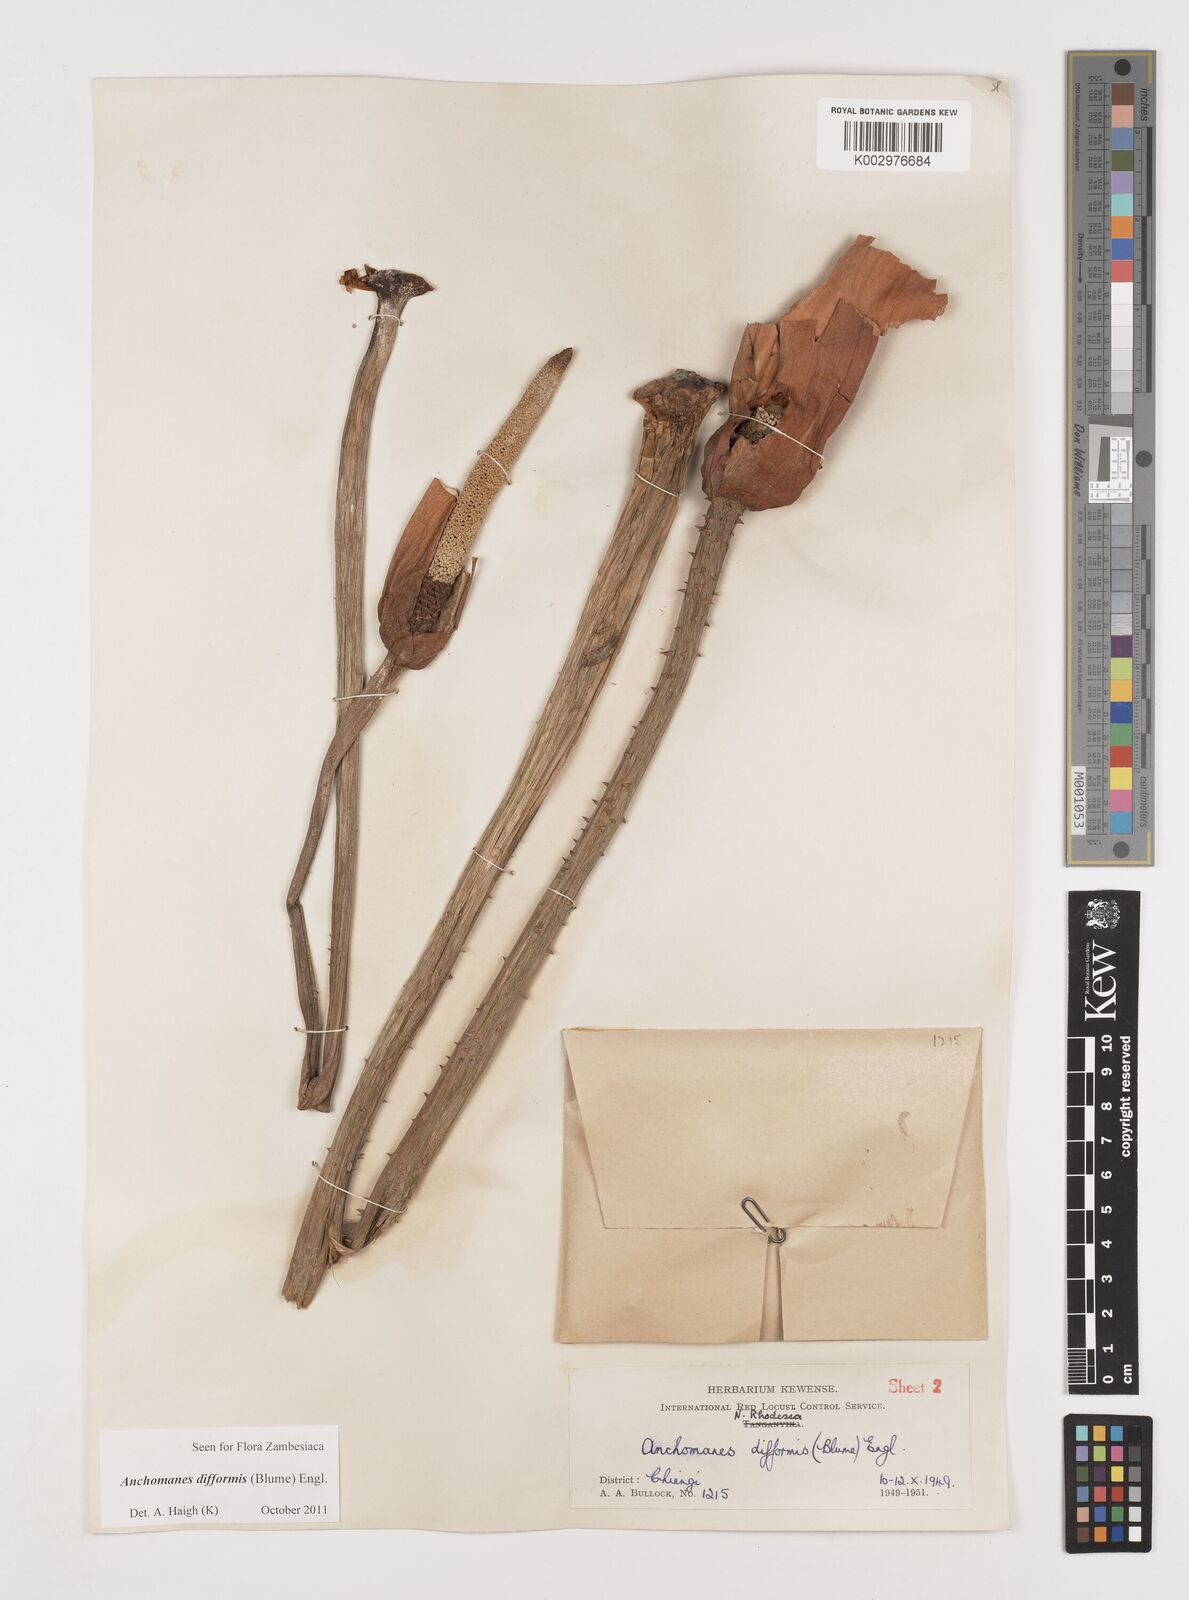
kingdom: Plantae
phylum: Tracheophyta
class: Liliopsida
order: Alismatales
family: Araceae
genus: Anchomanes
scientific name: Anchomanes difformis
